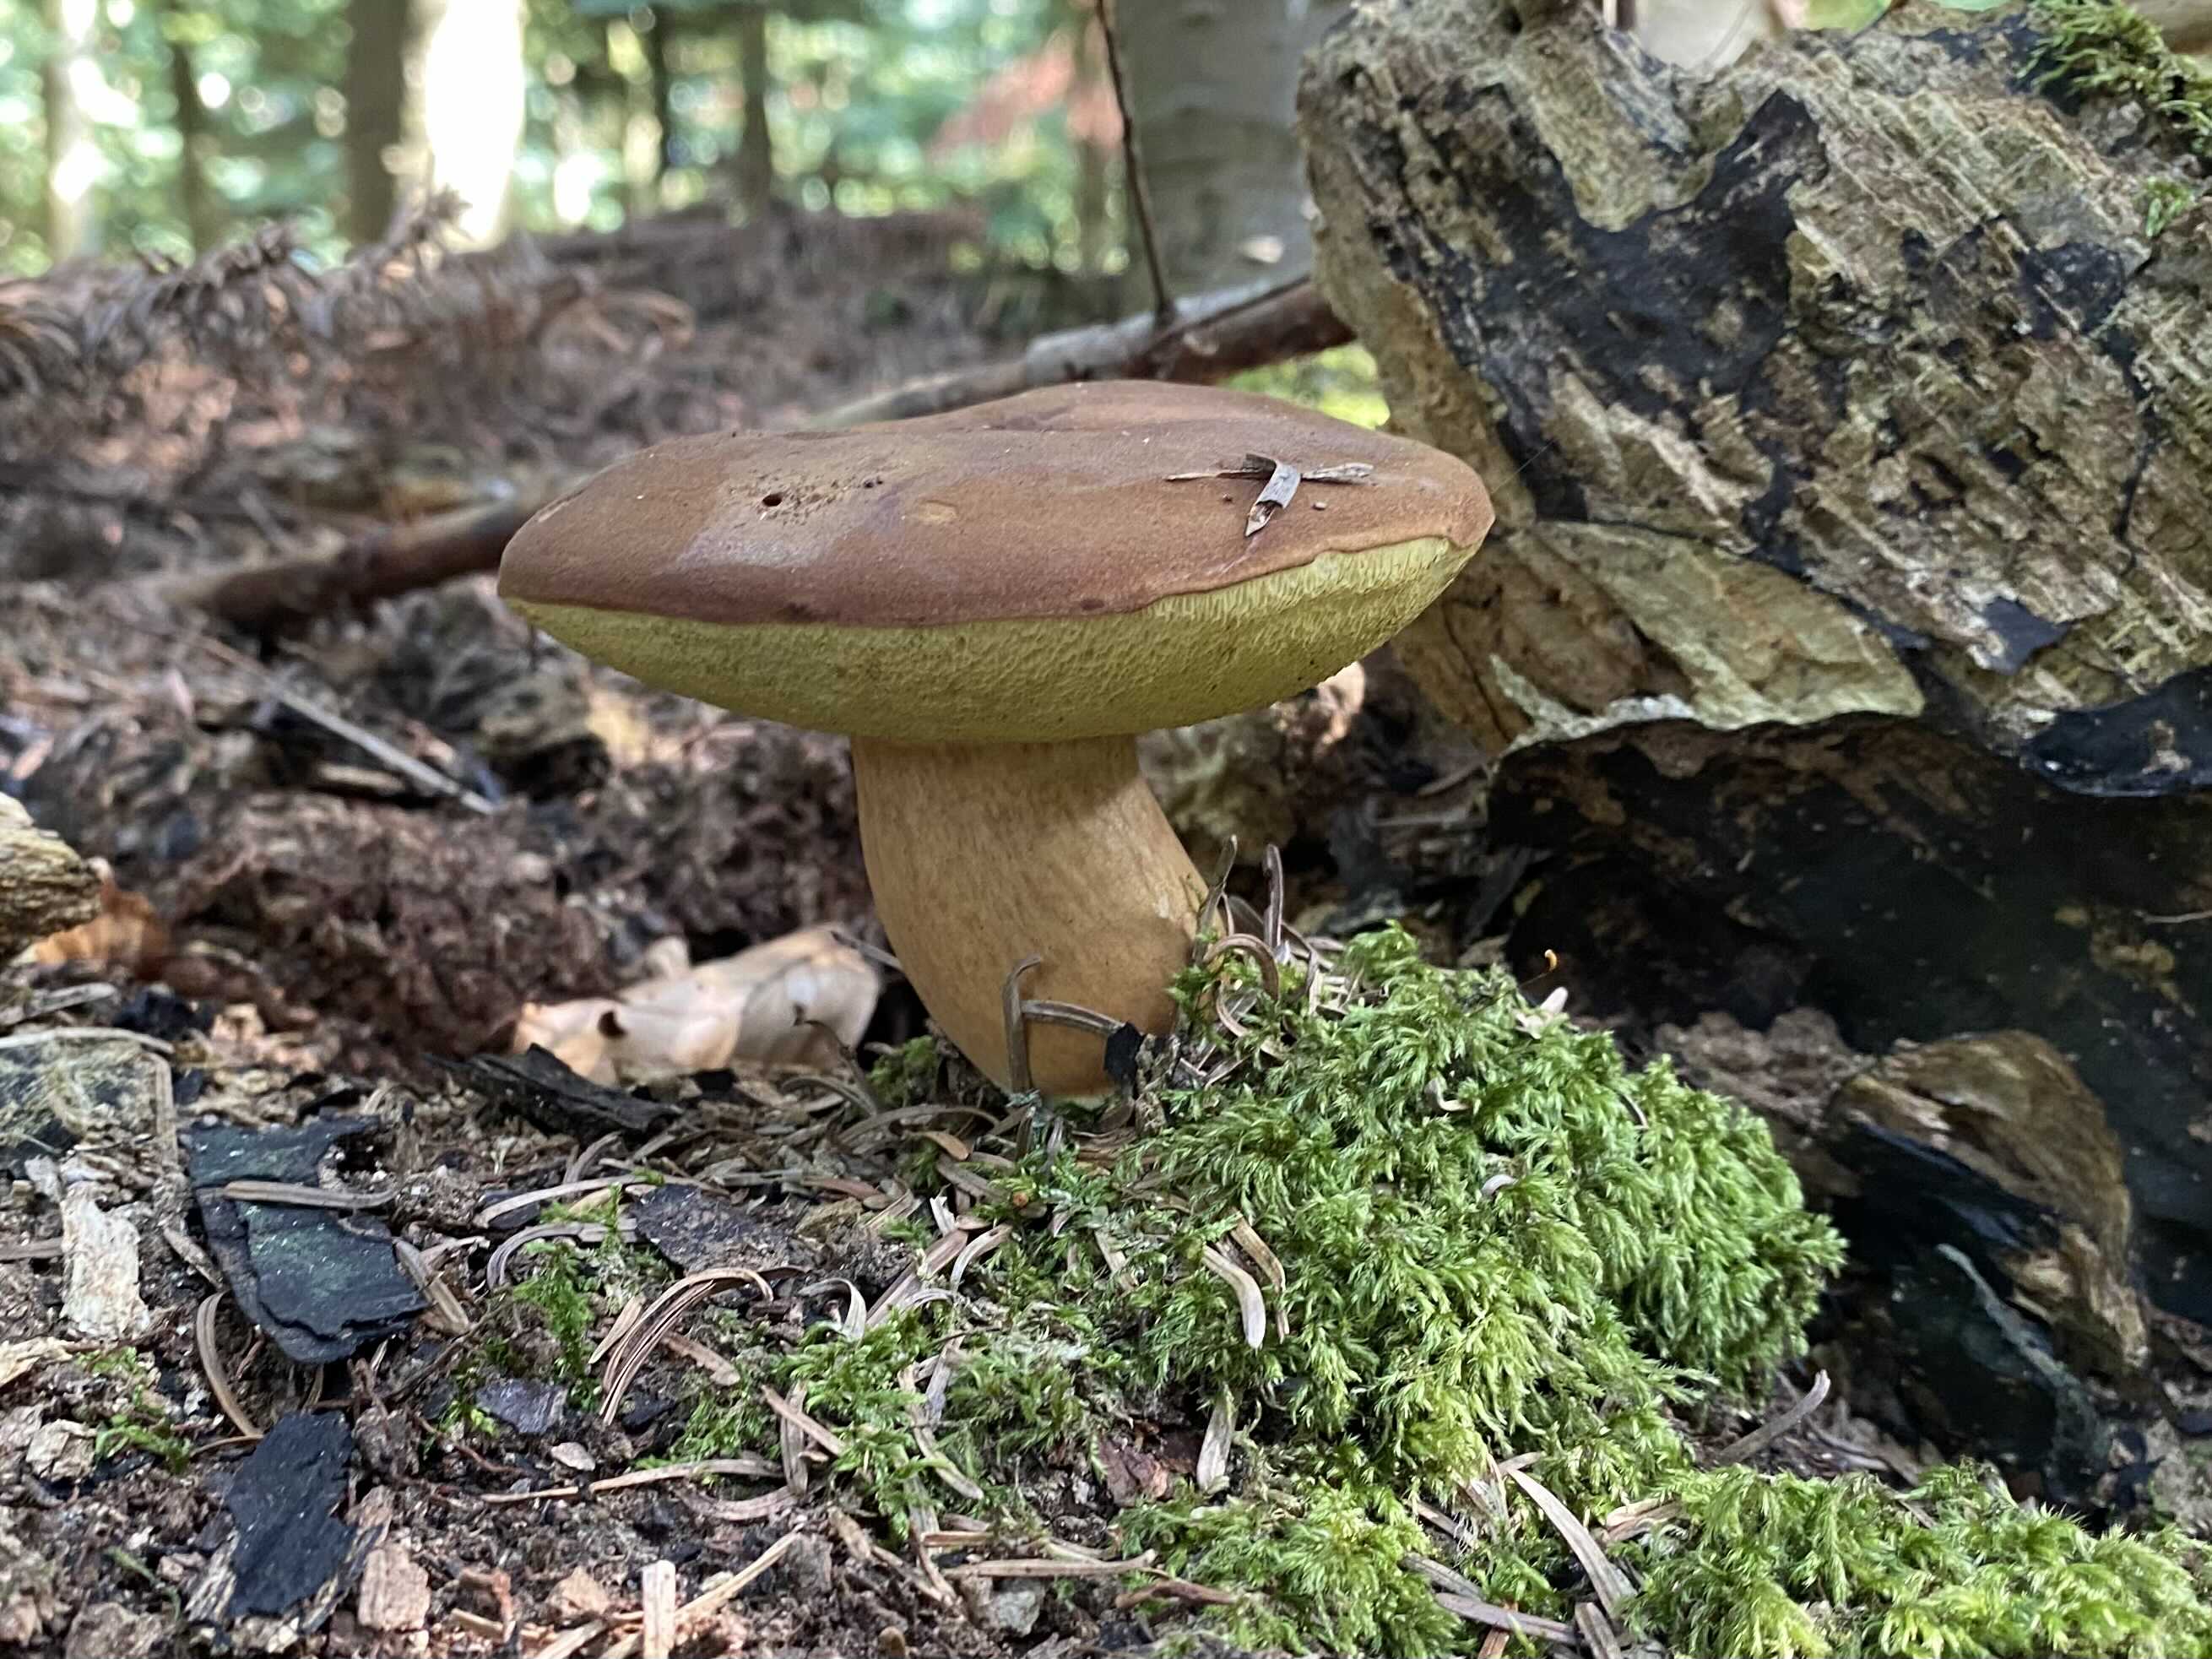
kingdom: Fungi
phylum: Basidiomycota
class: Agaricomycetes
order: Boletales
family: Boletaceae
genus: Imleria
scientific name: Imleria badia
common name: brunstokket rørhat
